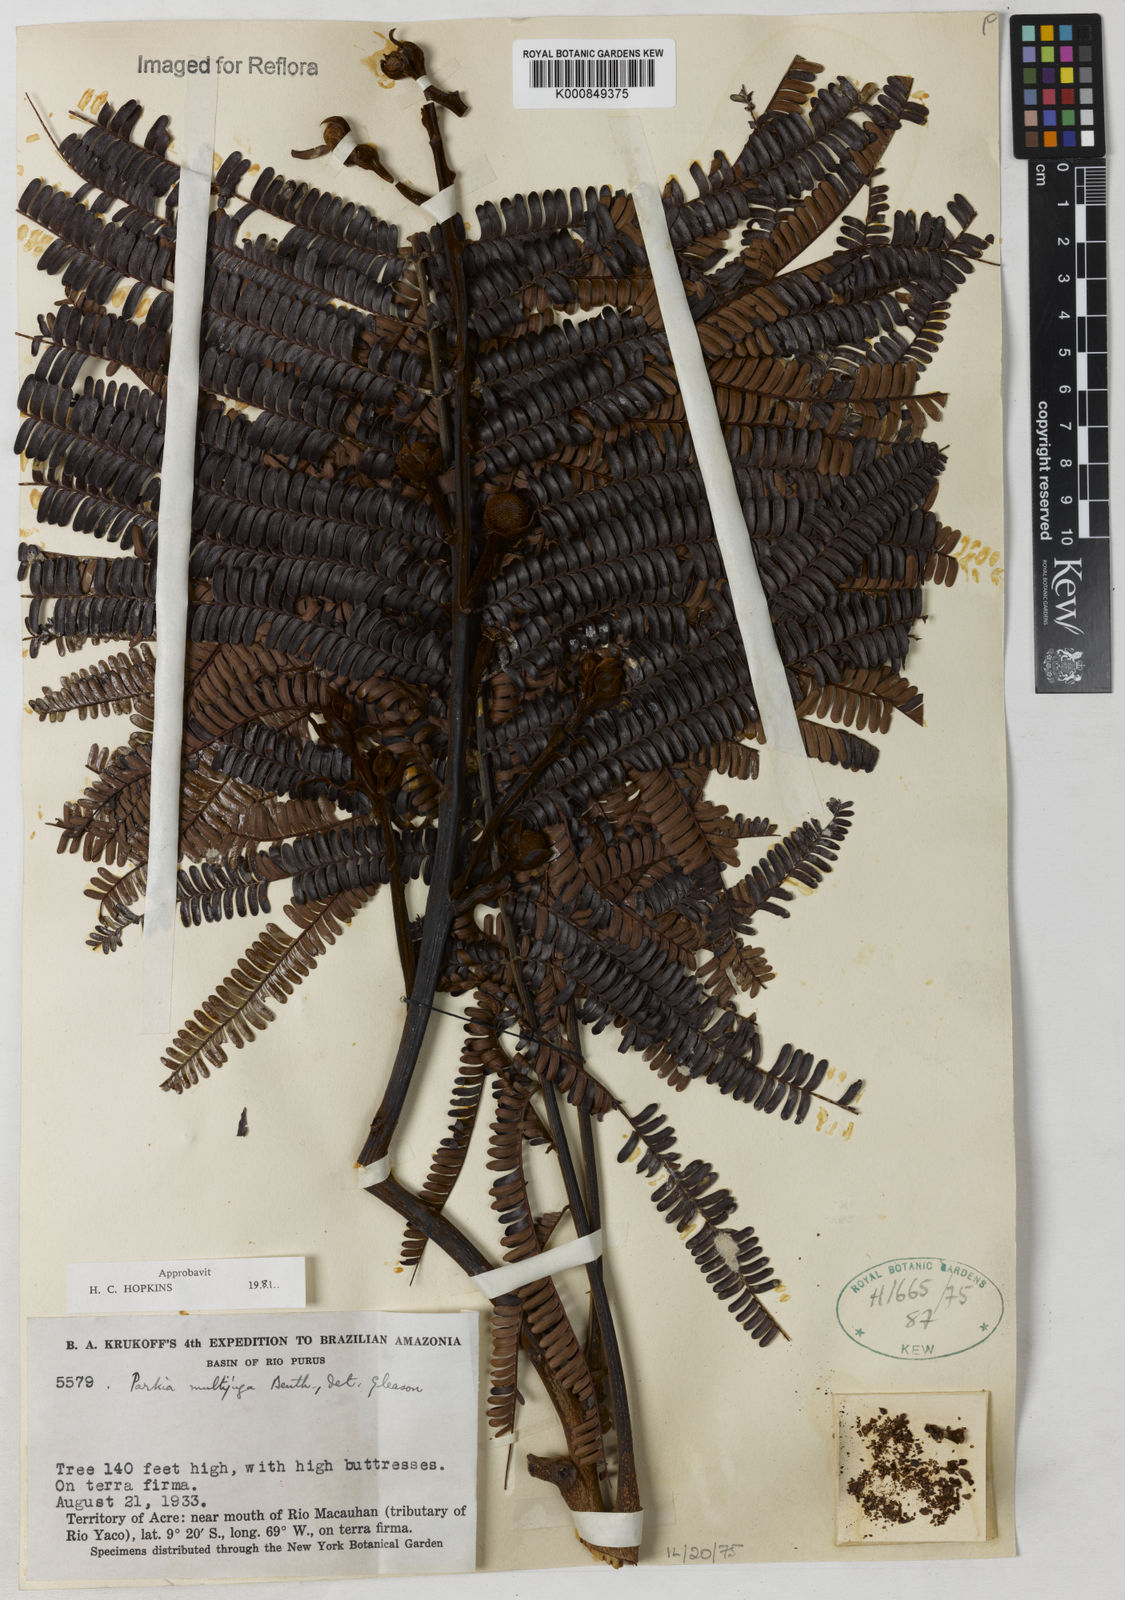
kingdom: Plantae
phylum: Tracheophyta
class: Magnoliopsida
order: Fabales
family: Fabaceae
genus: Parkia
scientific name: Parkia multijuga
